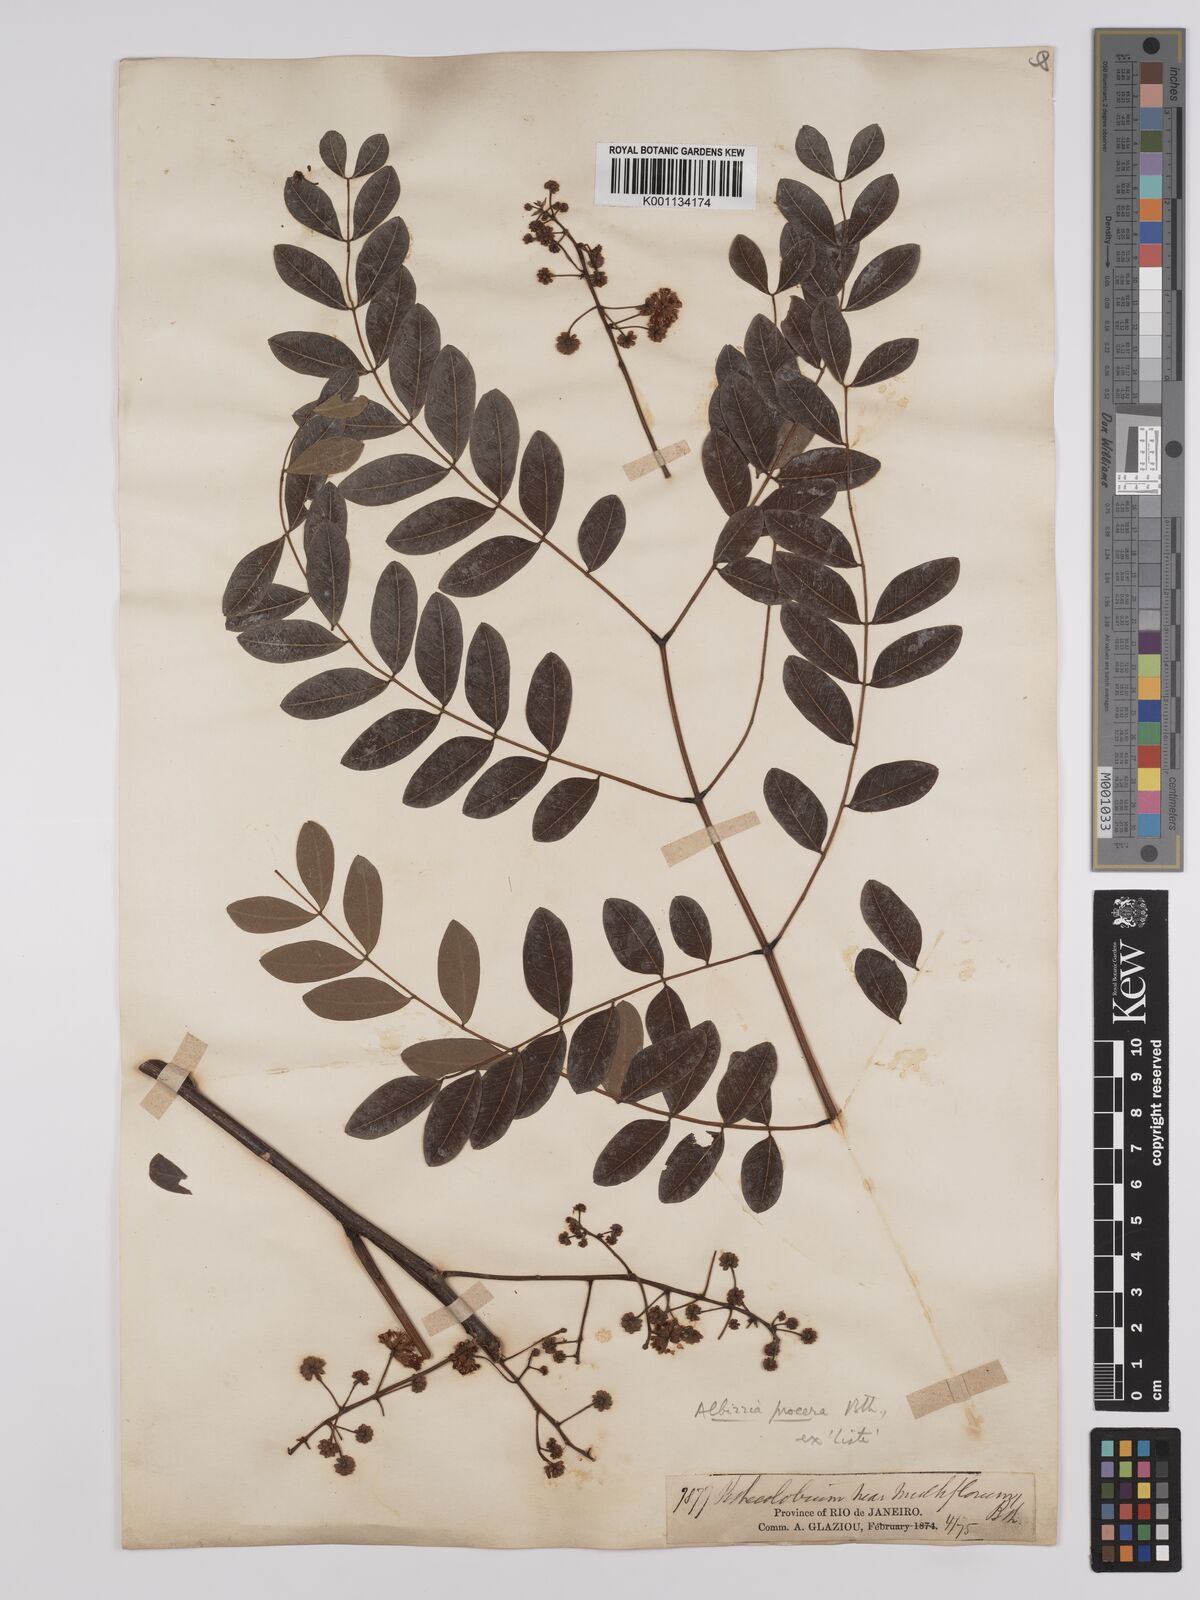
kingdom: Plantae
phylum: Tracheophyta
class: Magnoliopsida
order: Fabales
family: Fabaceae
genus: Albizia
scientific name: Albizia procera
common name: Tall albizia
